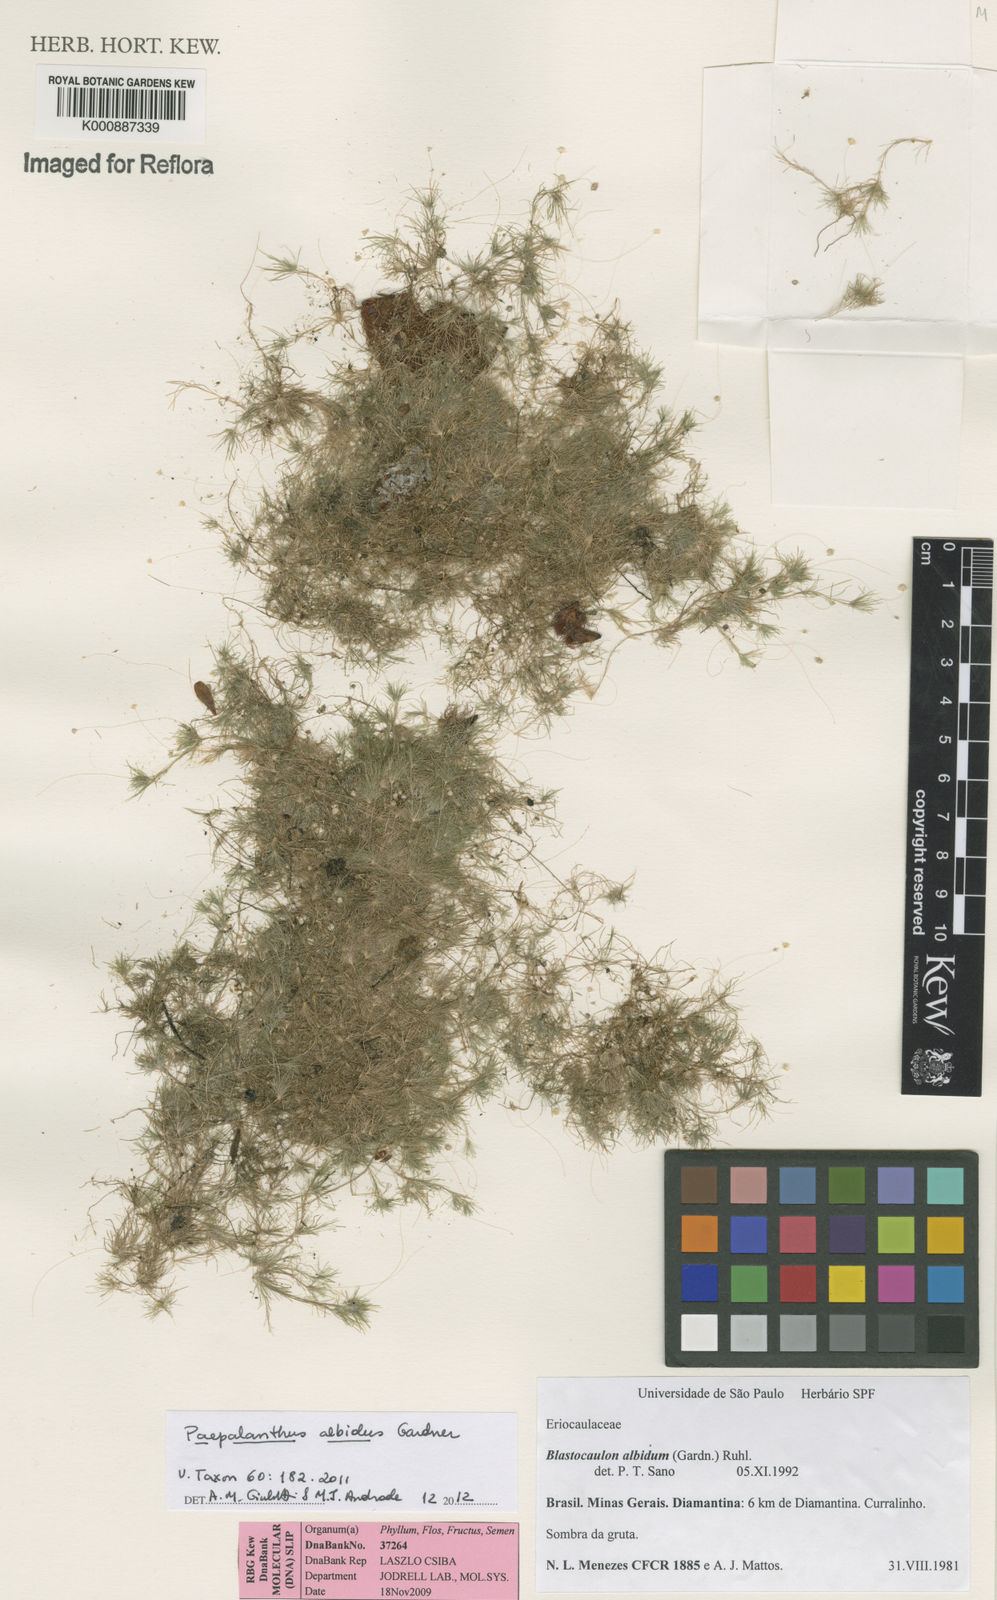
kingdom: Plantae
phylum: Tracheophyta
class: Liliopsida
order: Poales
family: Eriocaulaceae
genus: Paepalanthus
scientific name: Paepalanthus albidus
